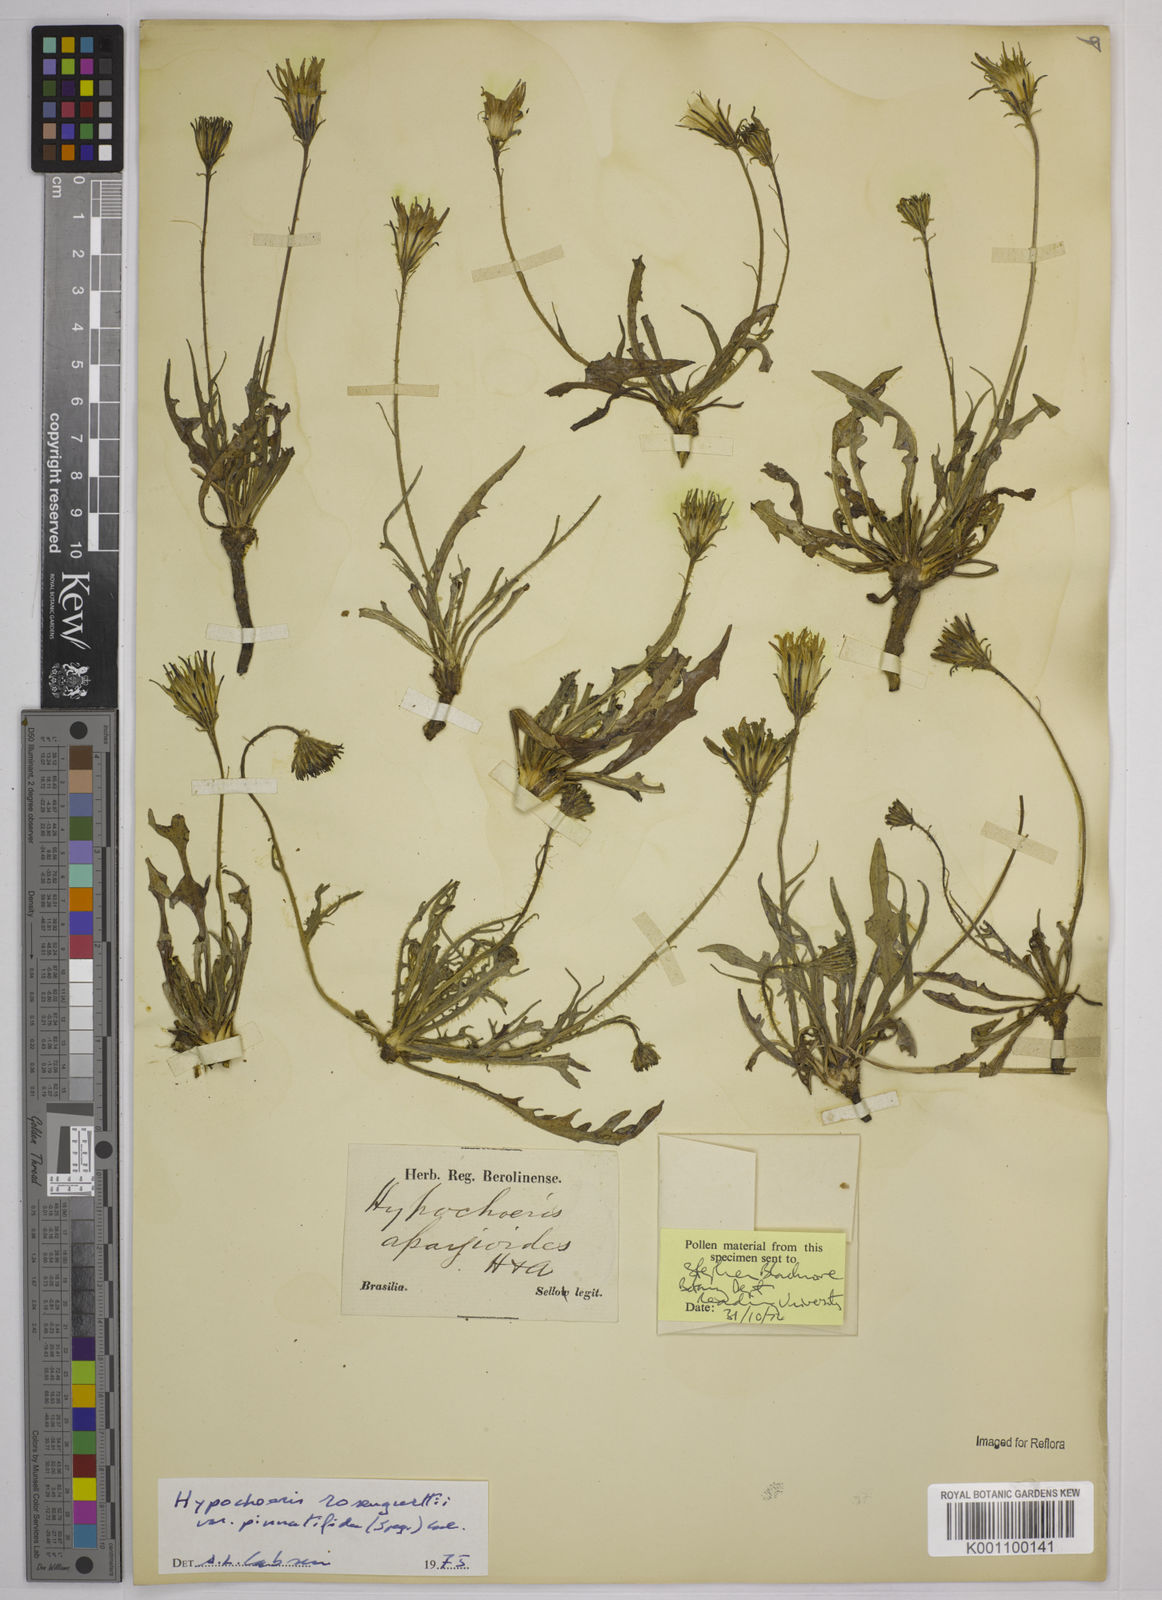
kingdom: Plantae
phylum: Tracheophyta
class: Magnoliopsida
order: Asterales
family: Asteraceae
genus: Hypochaeris
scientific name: Hypochaeris neopinnatifida
